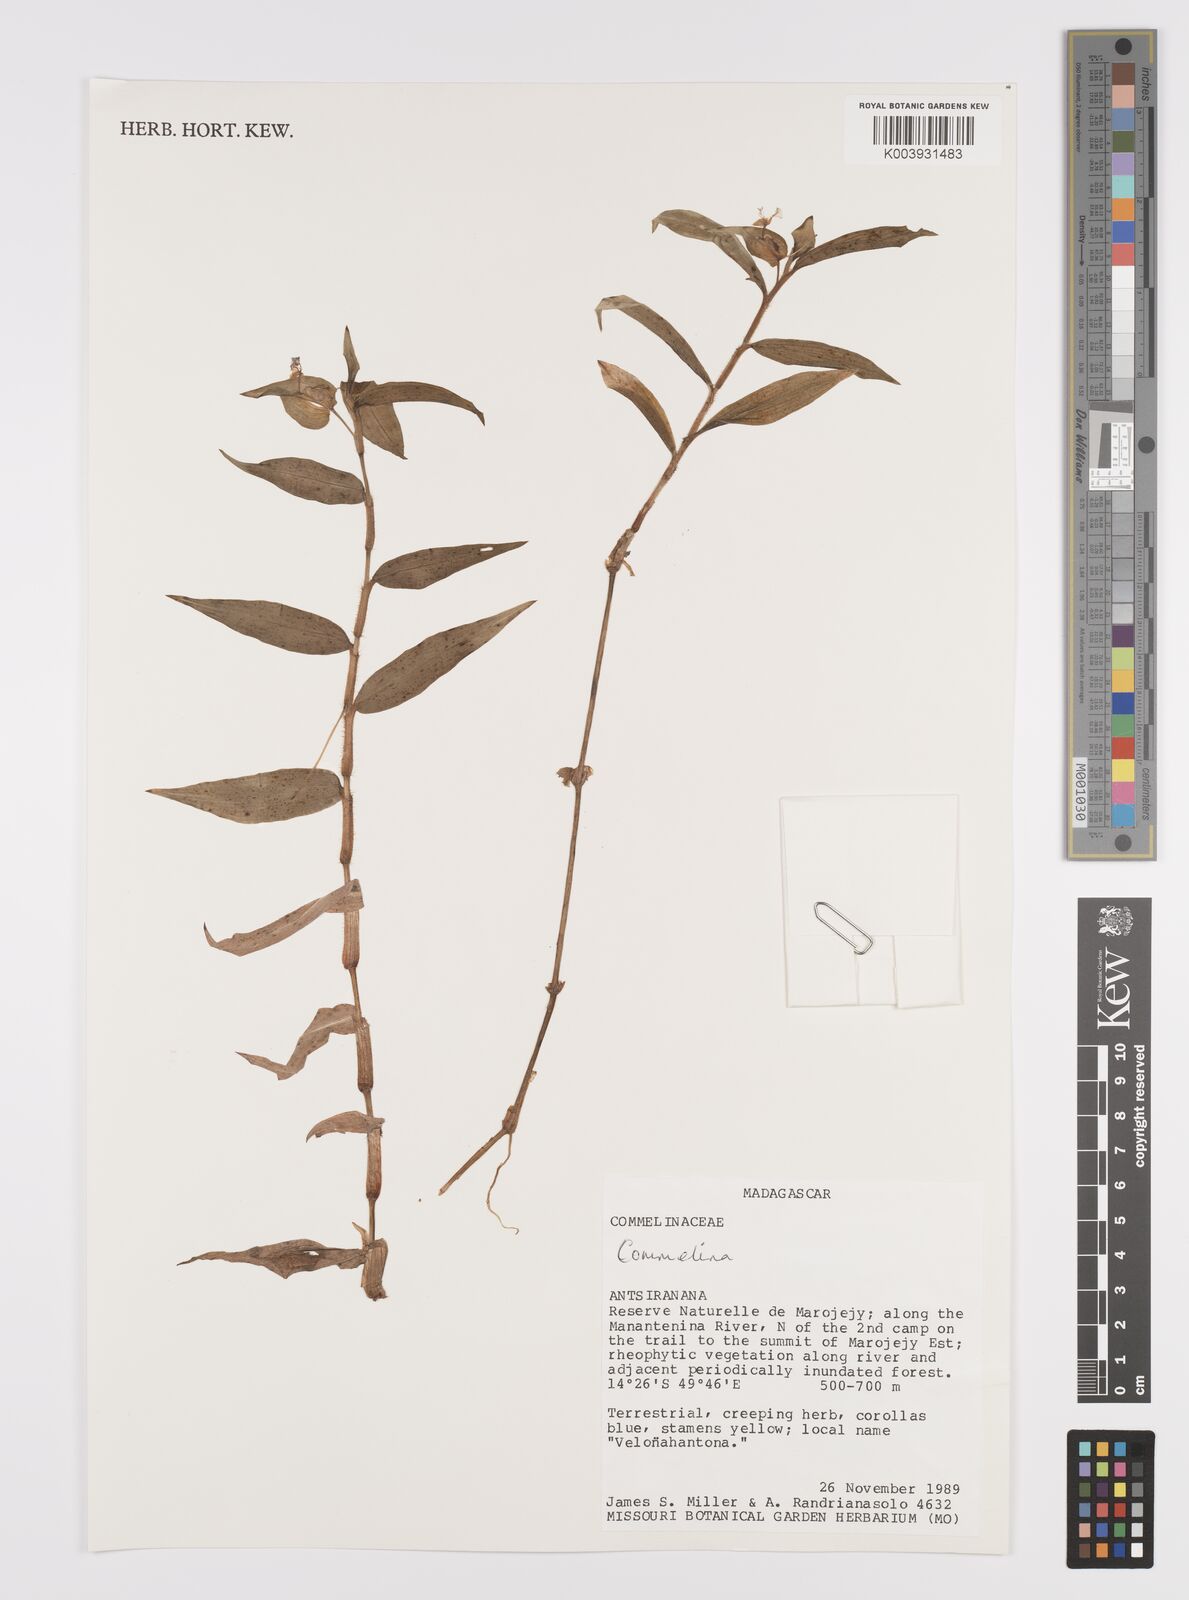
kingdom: Plantae
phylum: Tracheophyta
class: Liliopsida
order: Commelinales
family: Commelinaceae
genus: Commelina
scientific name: Commelina
